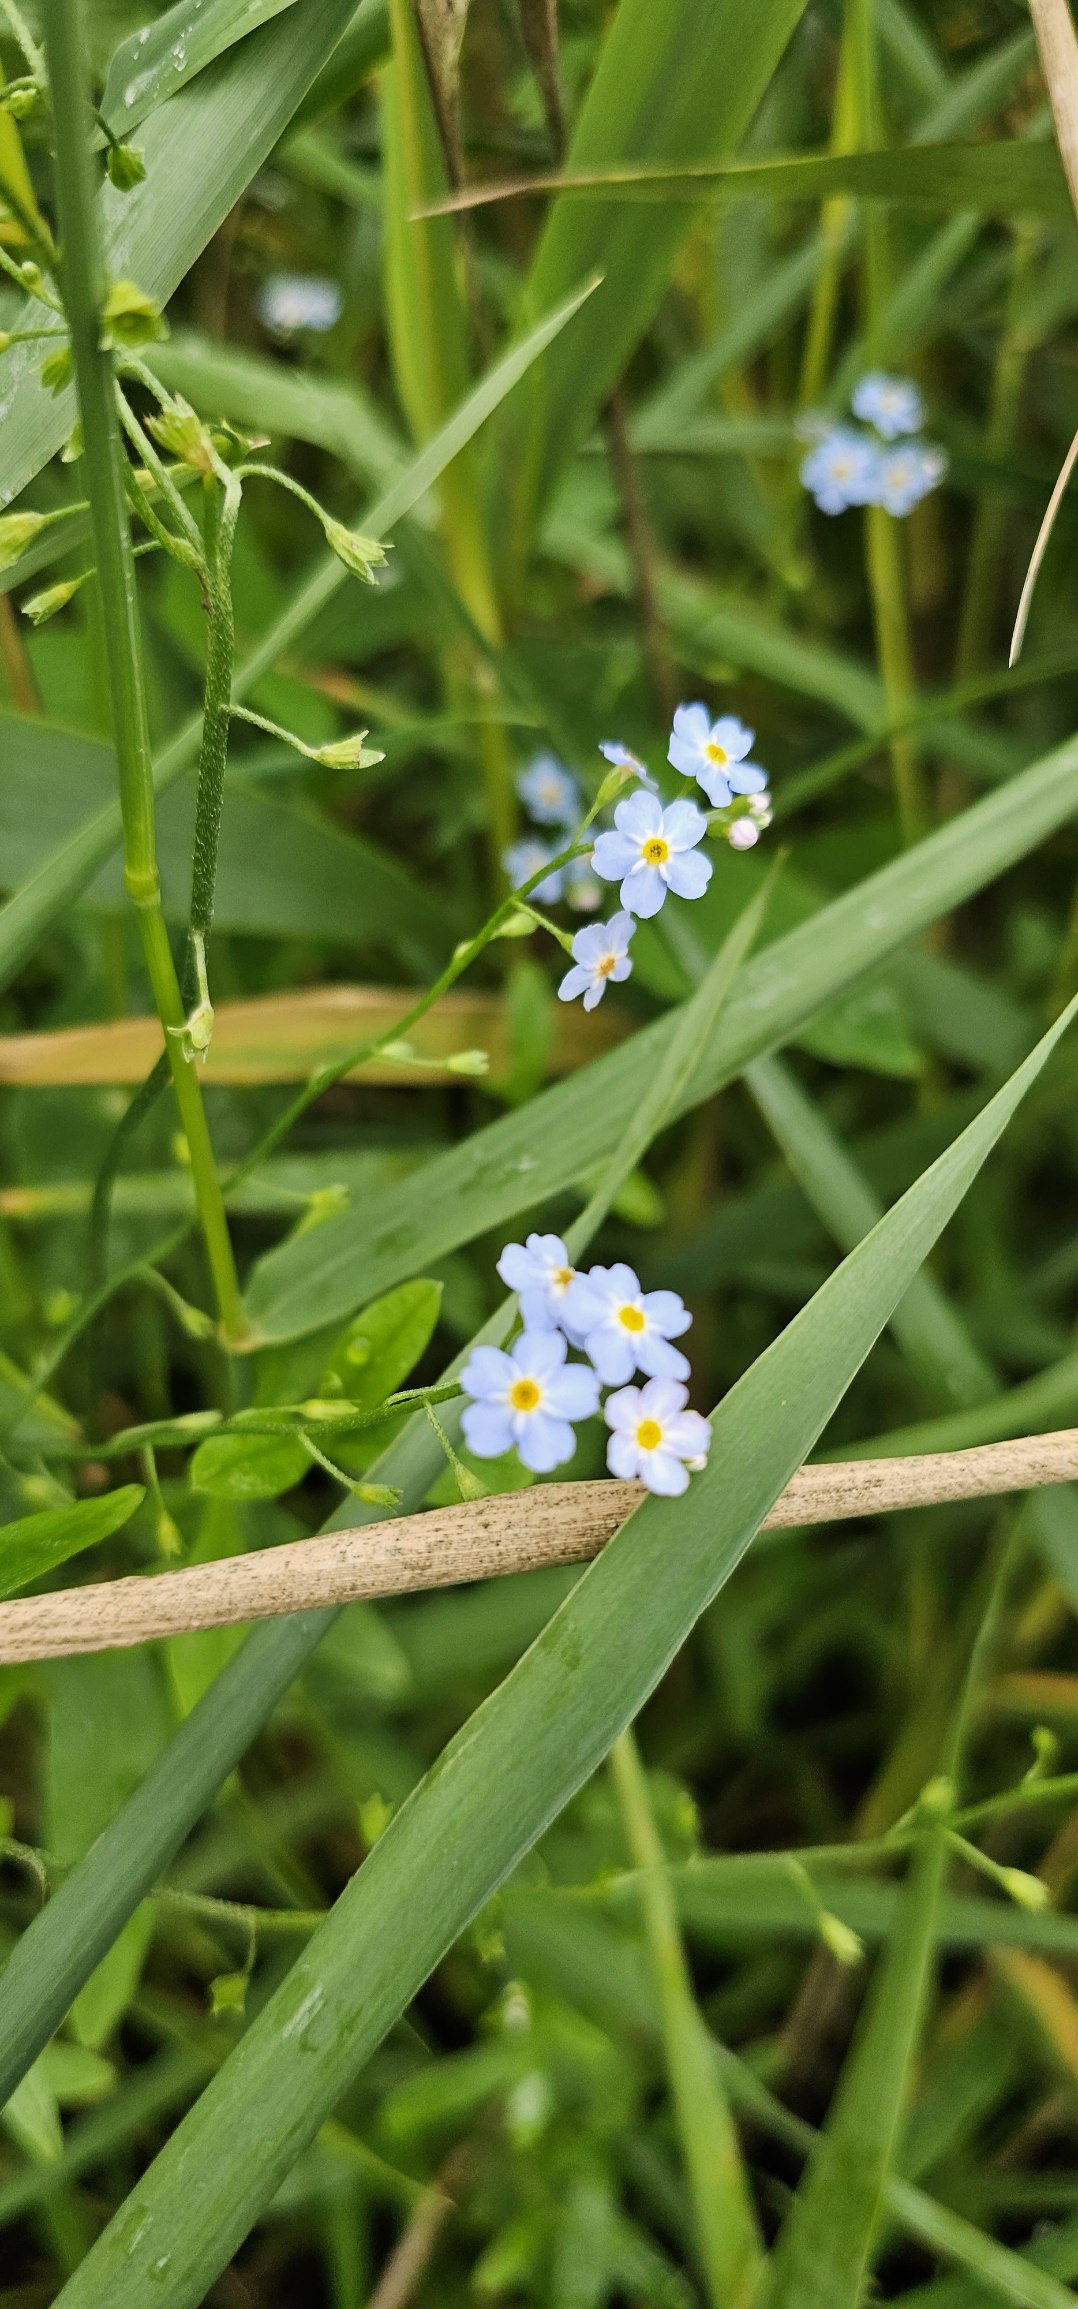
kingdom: Plantae
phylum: Tracheophyta
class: Magnoliopsida
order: Boraginales
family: Boraginaceae
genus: Myosotis
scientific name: Myosotis scorpioides
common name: Eng-forglemmigej
